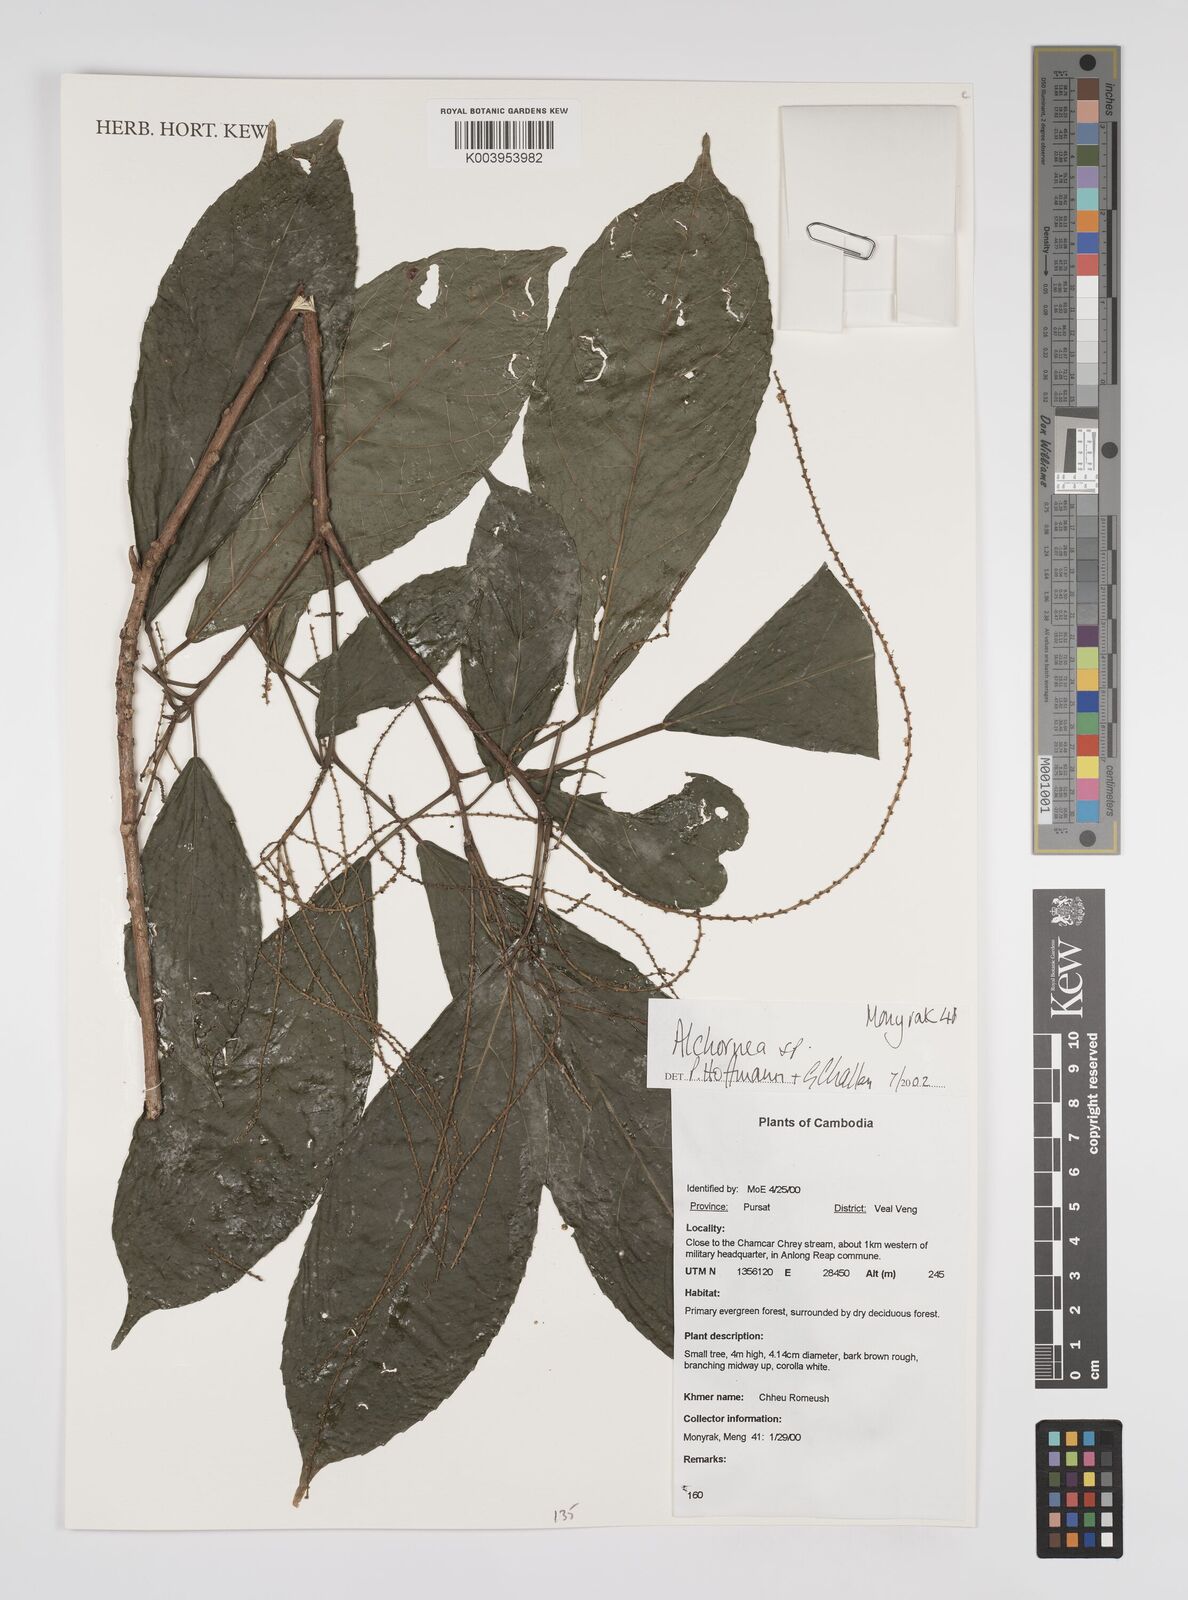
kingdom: Plantae
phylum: Tracheophyta
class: Magnoliopsida
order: Malpighiales
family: Euphorbiaceae
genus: Alchornea
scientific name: Alchornea
